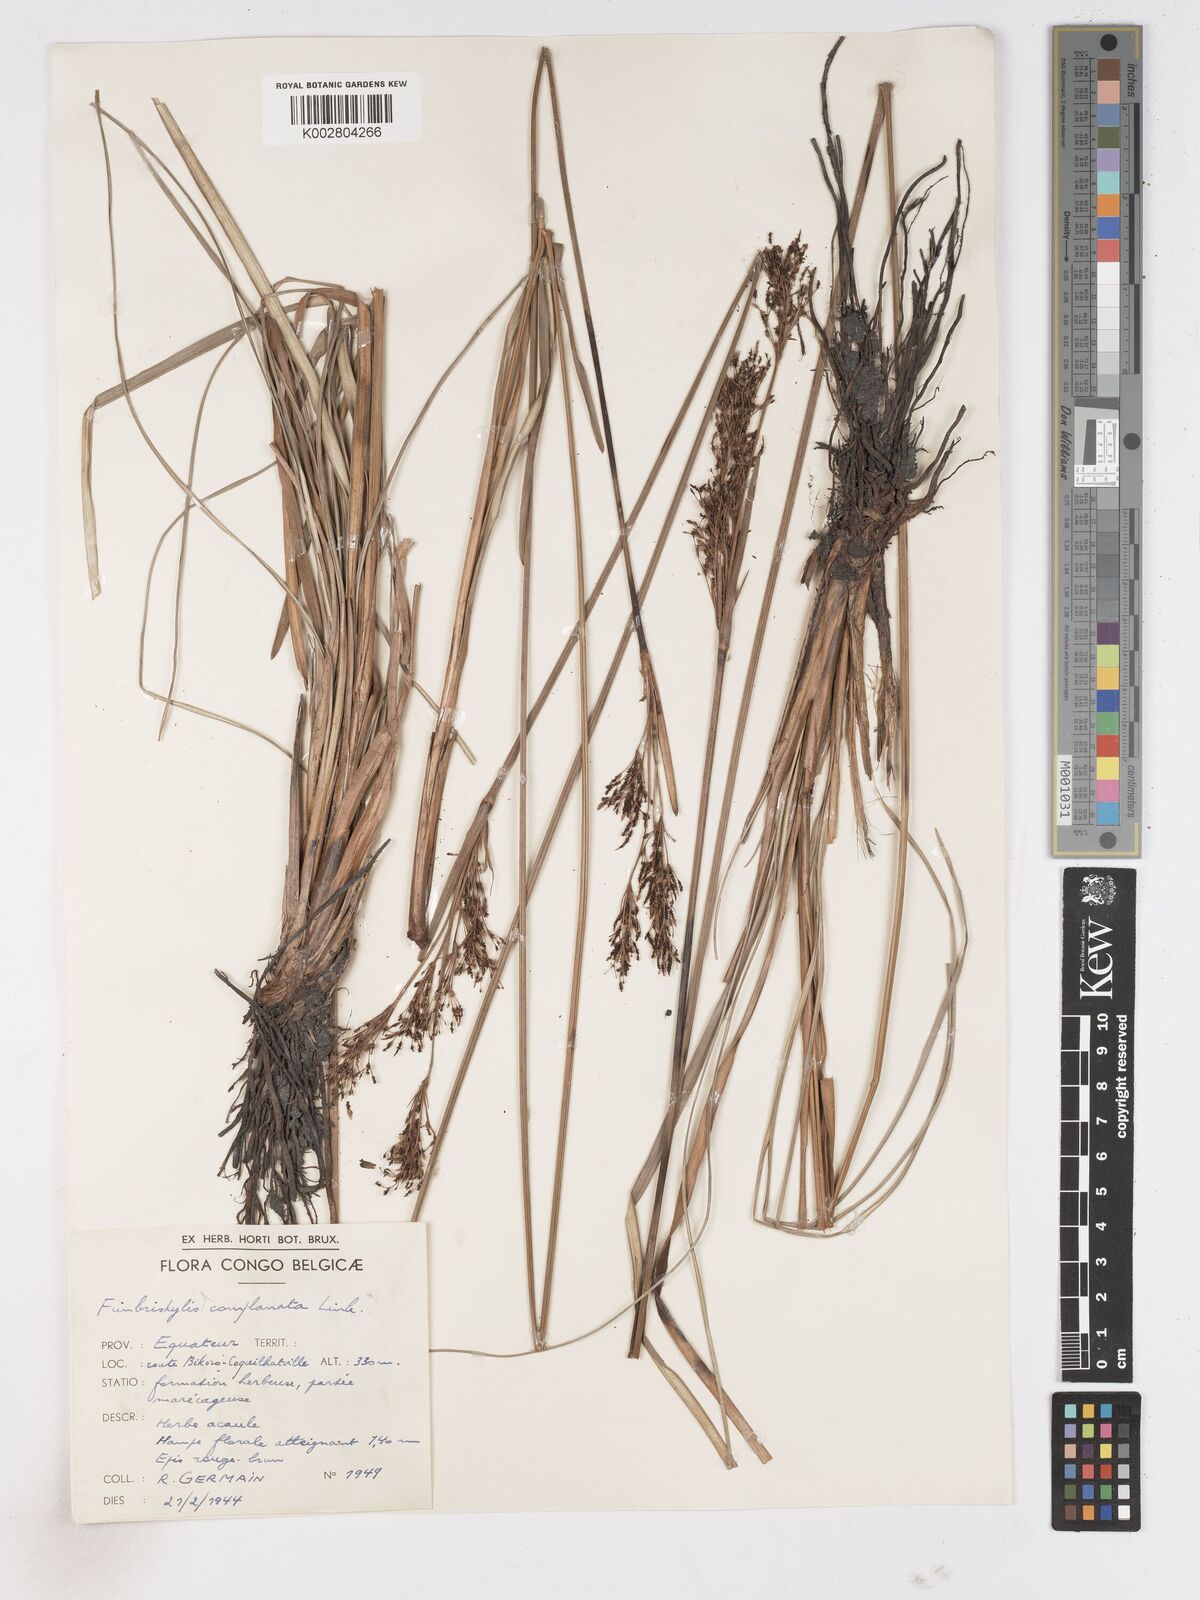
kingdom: Plantae
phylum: Tracheophyta
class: Liliopsida
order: Poales
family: Cyperaceae
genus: Fimbristylis
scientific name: Fimbristylis dura
